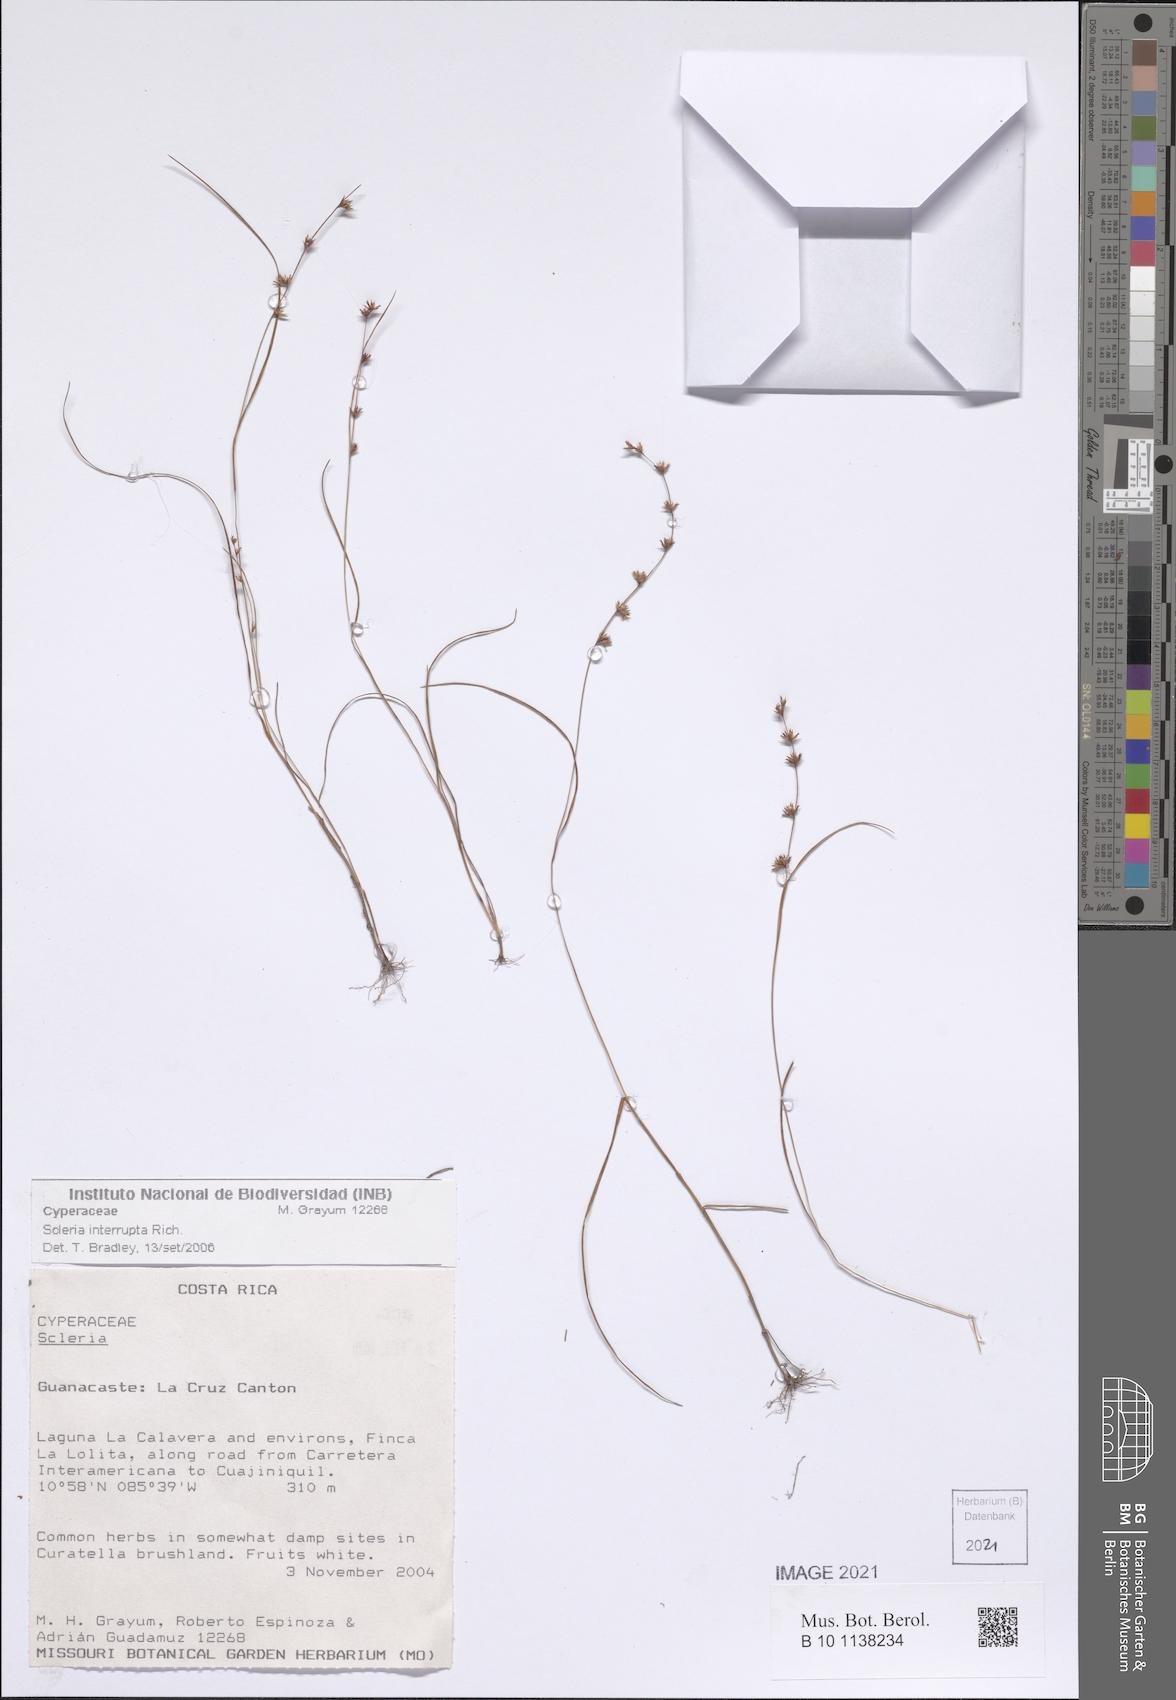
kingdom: Plantae
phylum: Tracheophyta
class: Liliopsida
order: Poales
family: Cyperaceae
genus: Scleria
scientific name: Scleria
